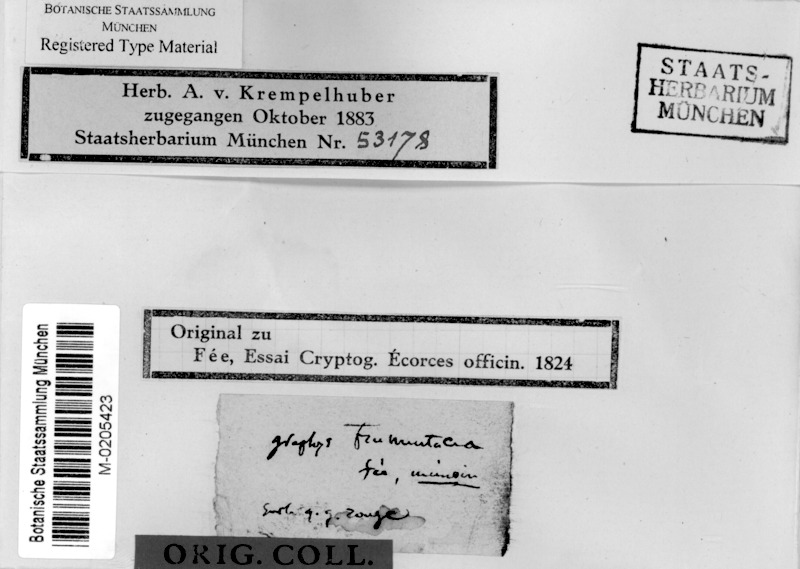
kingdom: Fungi
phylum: Ascomycota
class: Lecanoromycetes
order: Ostropales
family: Graphidaceae
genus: Allographa
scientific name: Allographa frumentaria
